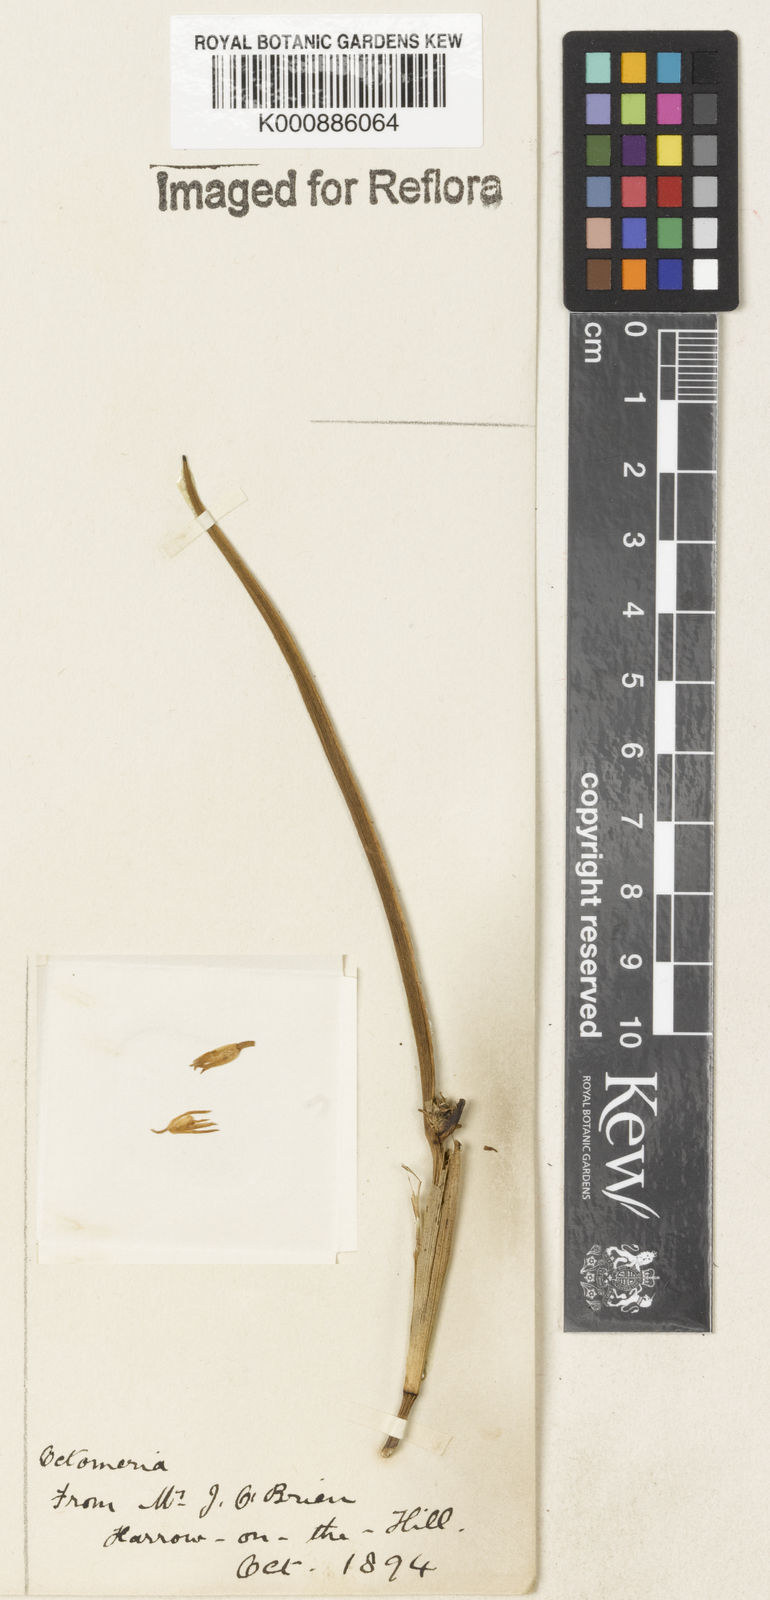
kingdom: Plantae
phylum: Tracheophyta
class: Liliopsida
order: Asparagales
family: Orchidaceae
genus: Octomeria
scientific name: Octomeria
